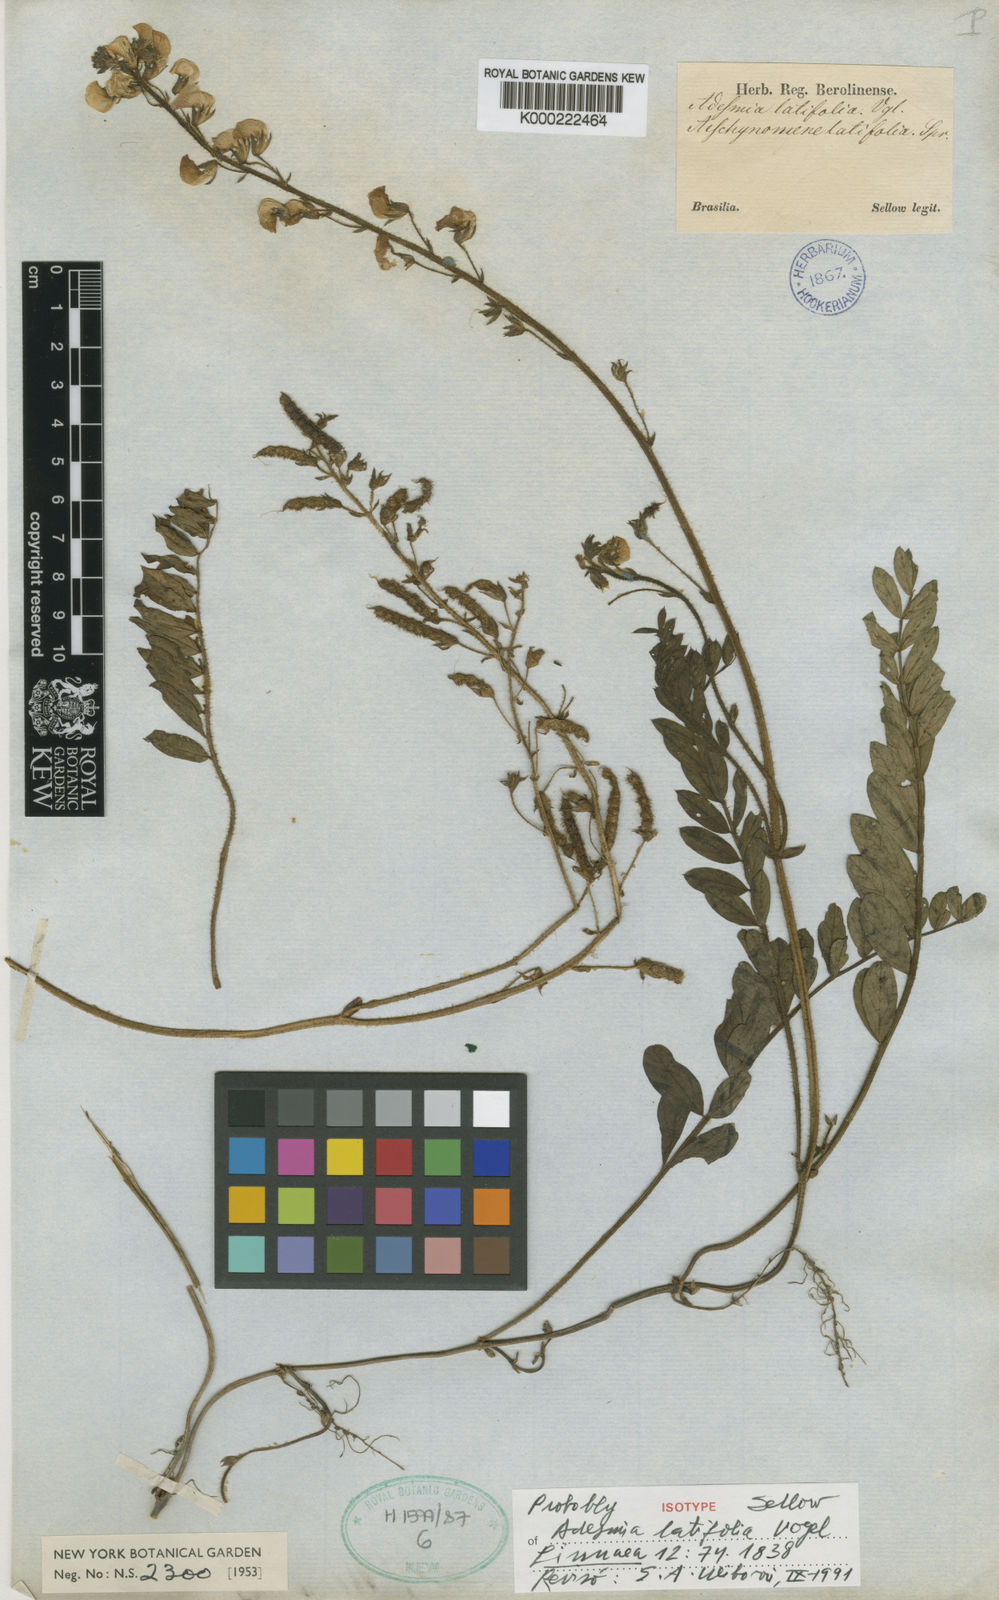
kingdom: Plantae
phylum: Tracheophyta
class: Magnoliopsida
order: Fabales
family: Fabaceae
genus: Adesmia
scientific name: Adesmia latifolia
